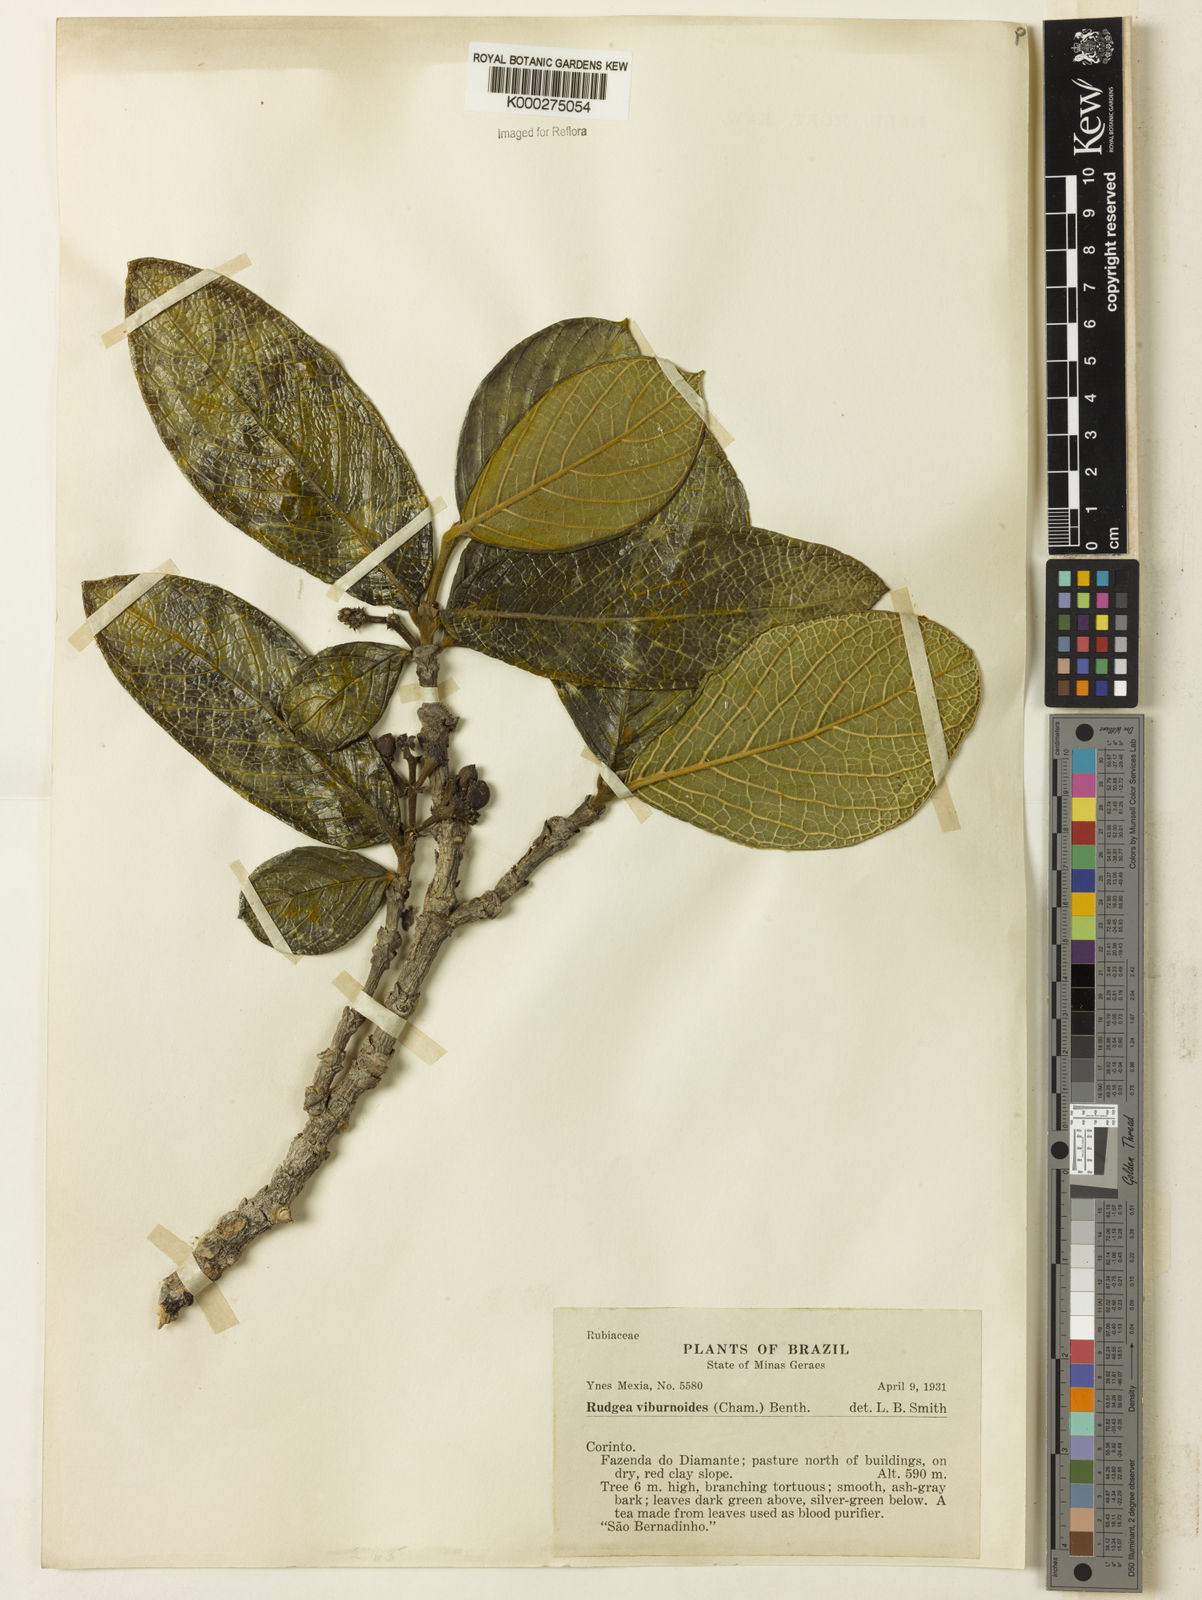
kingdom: Plantae
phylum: Tracheophyta
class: Magnoliopsida
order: Gentianales
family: Rubiaceae
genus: Rudgea
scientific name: Rudgea viburnoides
